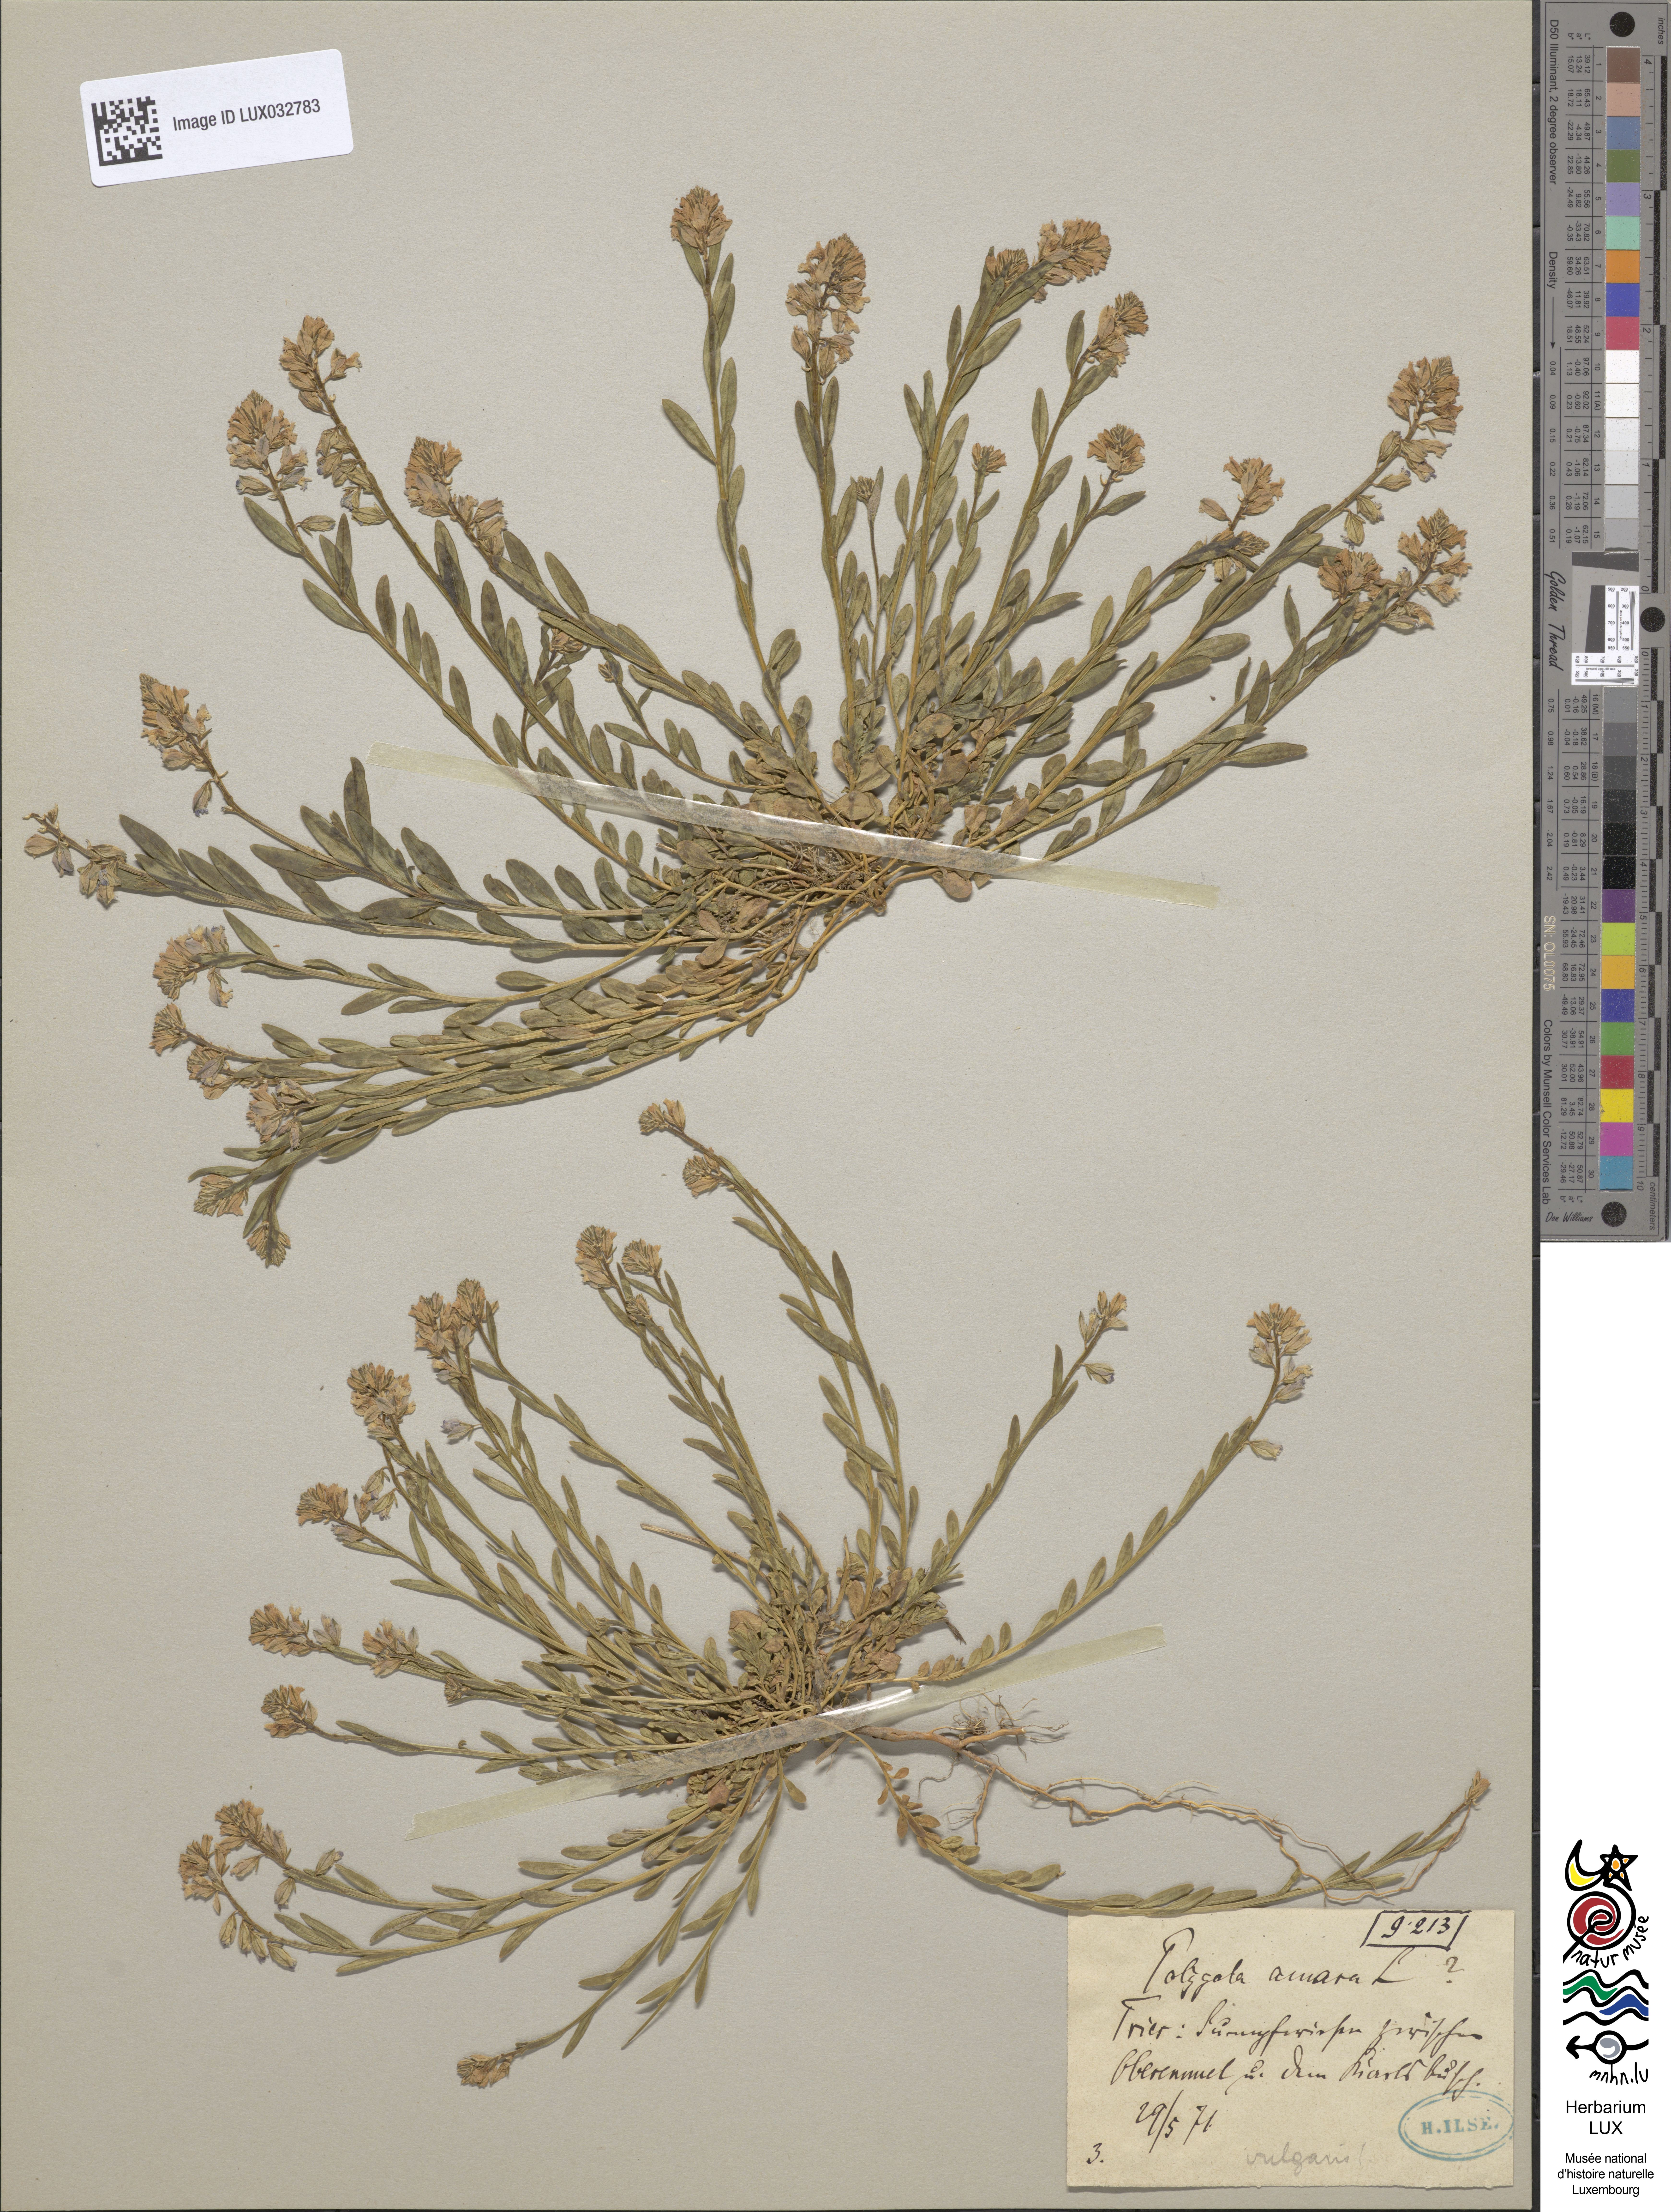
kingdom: Plantae
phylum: Tracheophyta
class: Magnoliopsida
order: Fabales
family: Polygalaceae
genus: Polygala
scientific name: Polygala amara
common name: Milkwort
